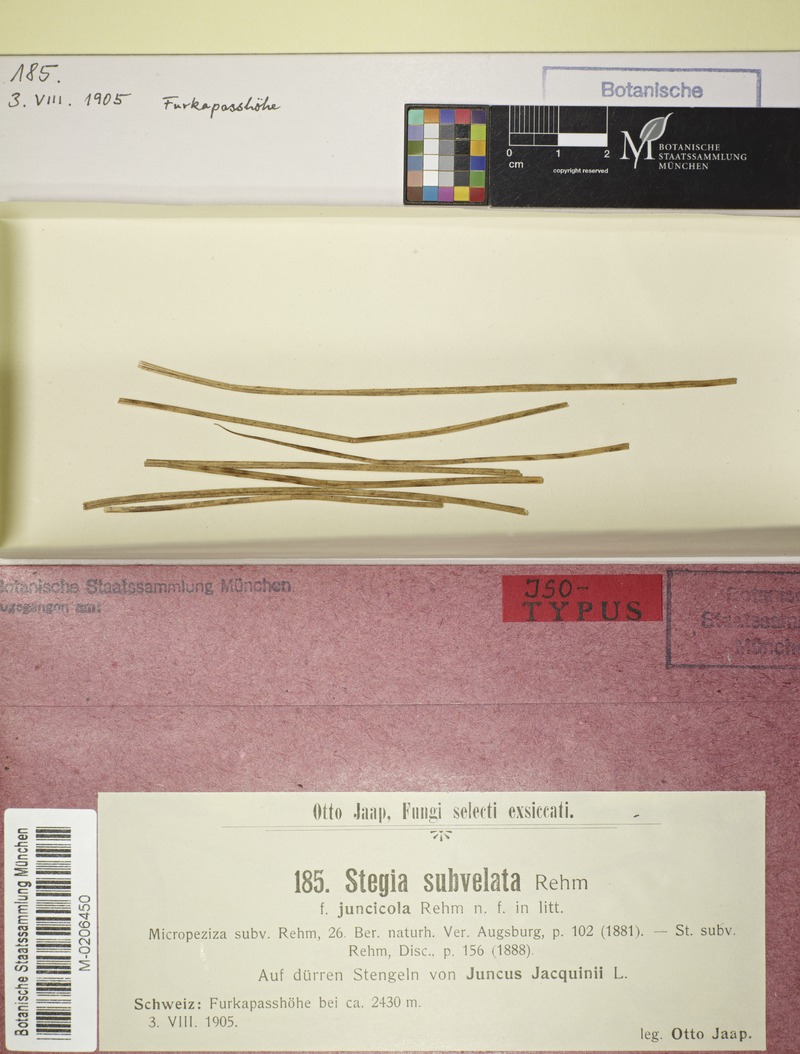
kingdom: Fungi
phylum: Ascomycota
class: Leotiomycetes
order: Helotiales
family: Dermateaceae
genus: Hysteropezizella
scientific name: Hysteropezizella subvelata
